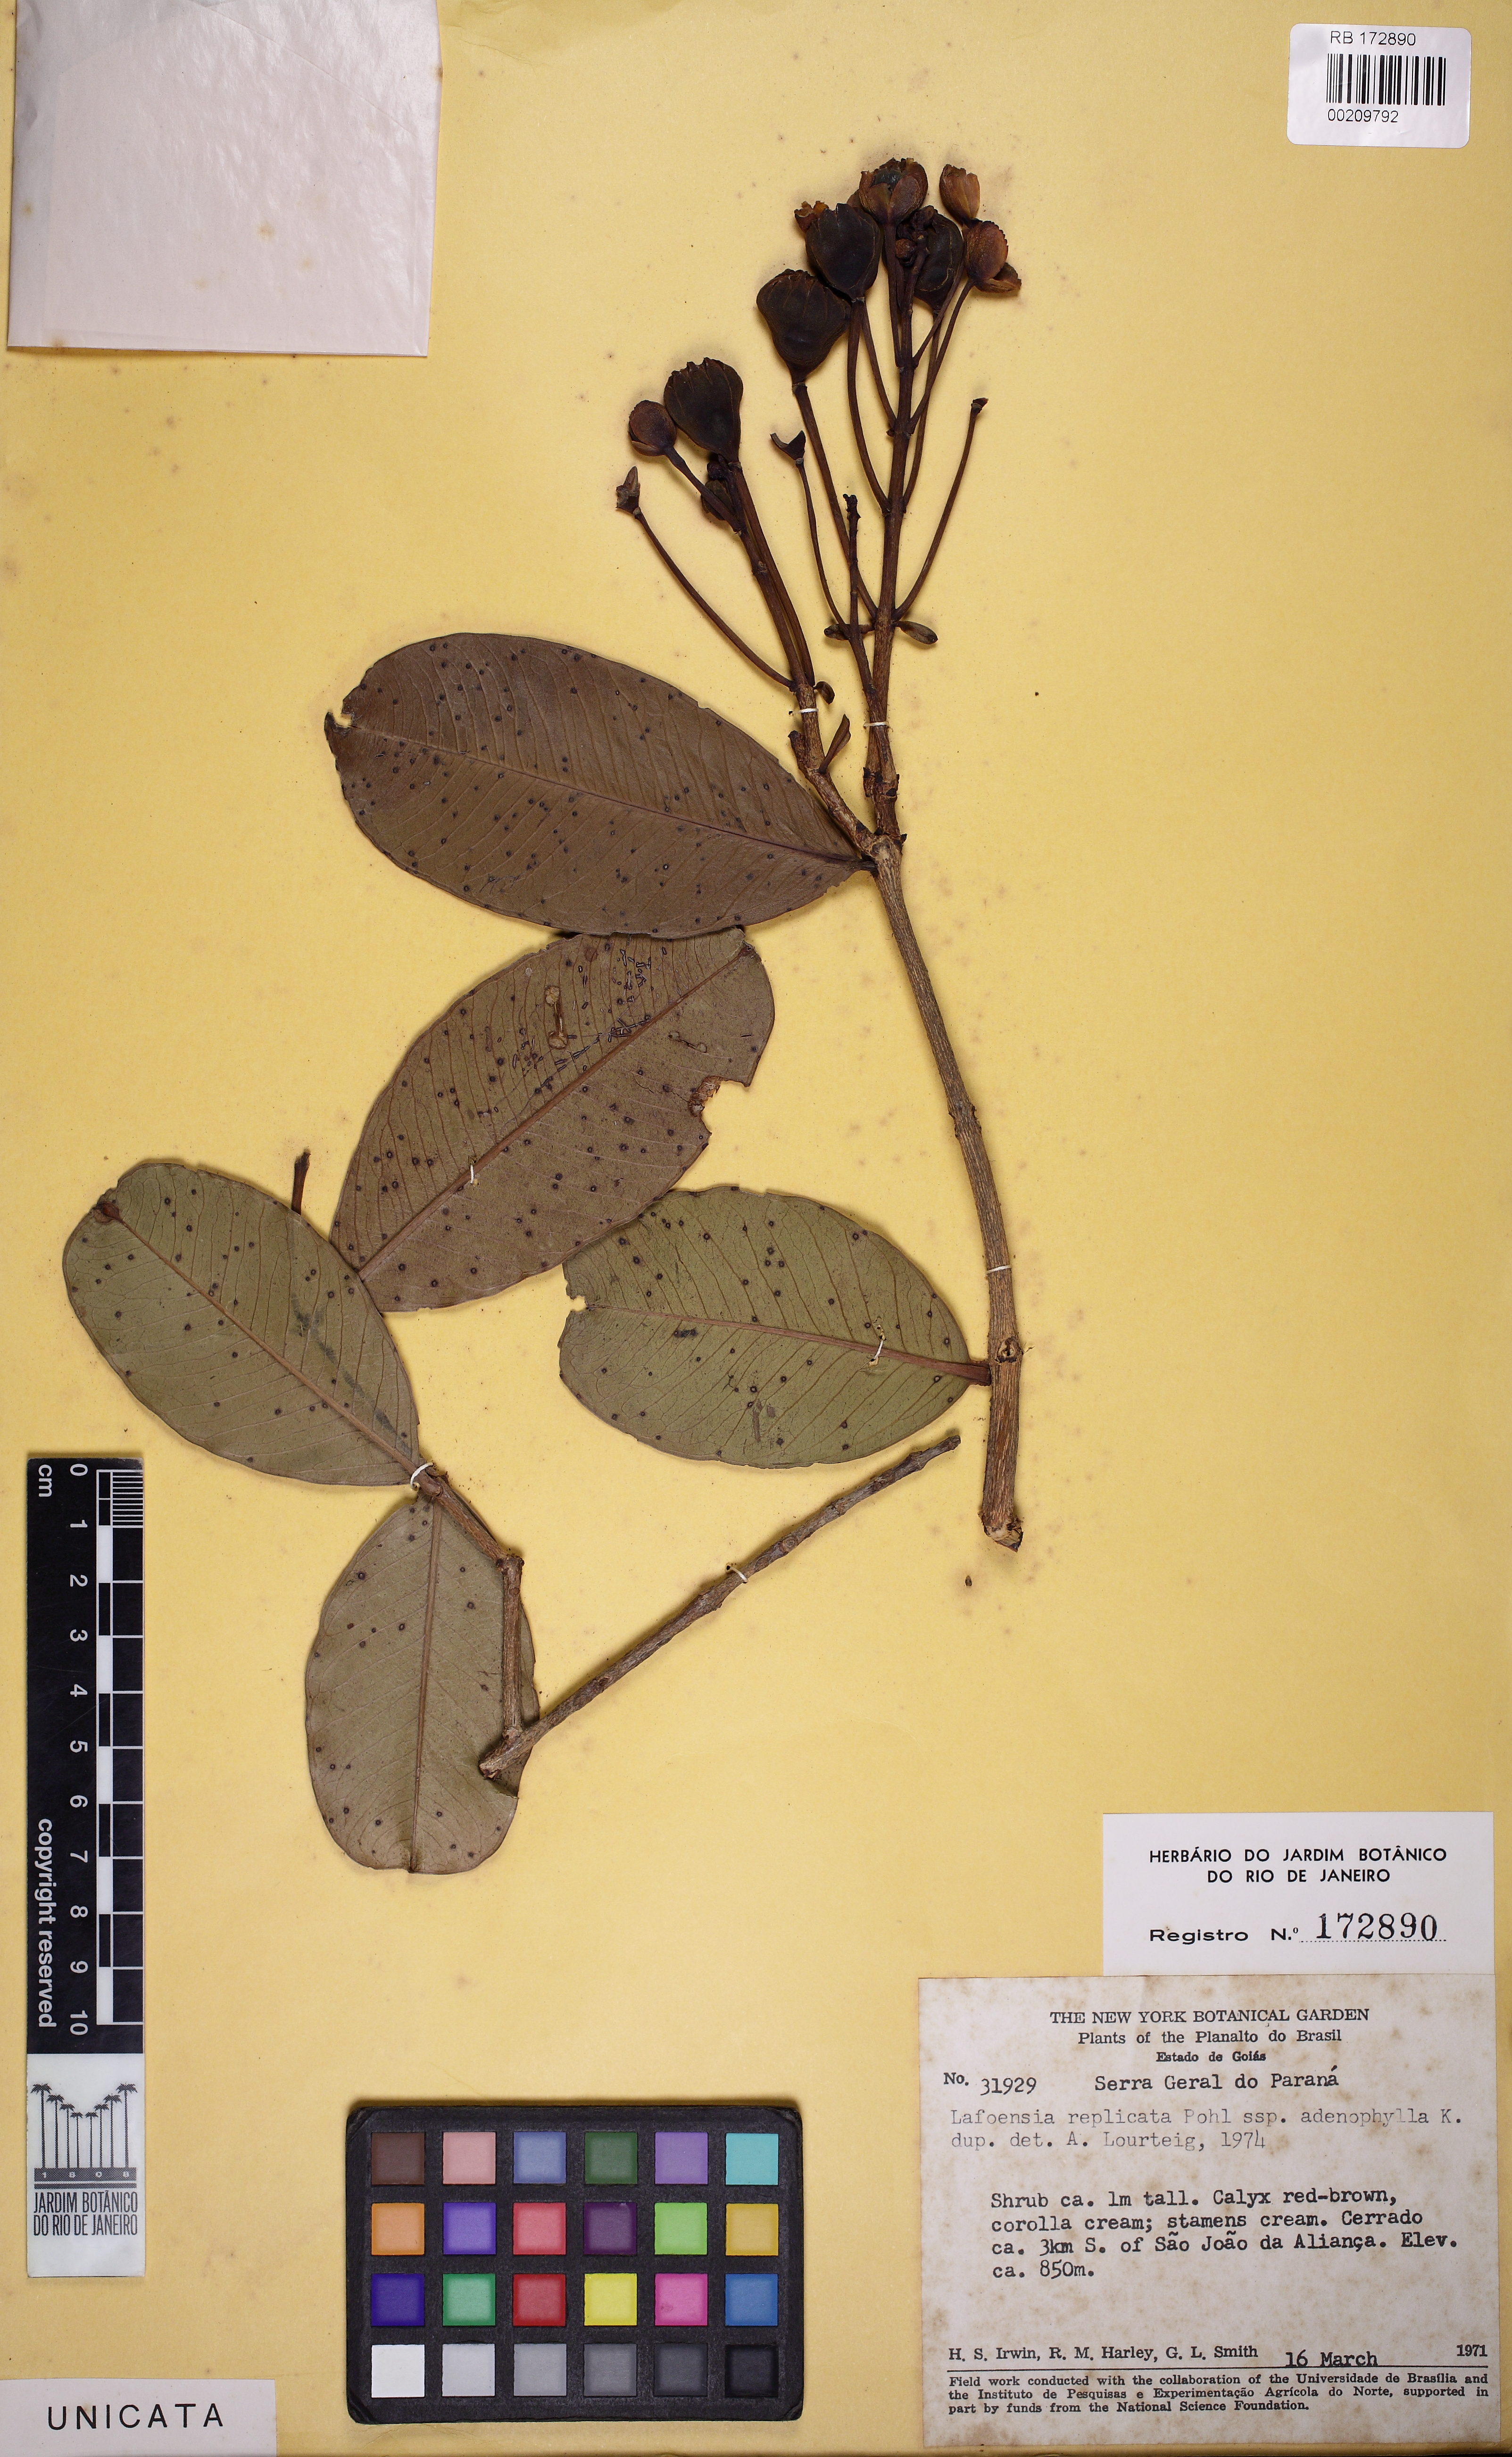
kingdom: Plantae
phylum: Tracheophyta
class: Magnoliopsida
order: Myrtales
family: Lythraceae
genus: Lafoensia
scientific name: Lafoensia vandelliana
